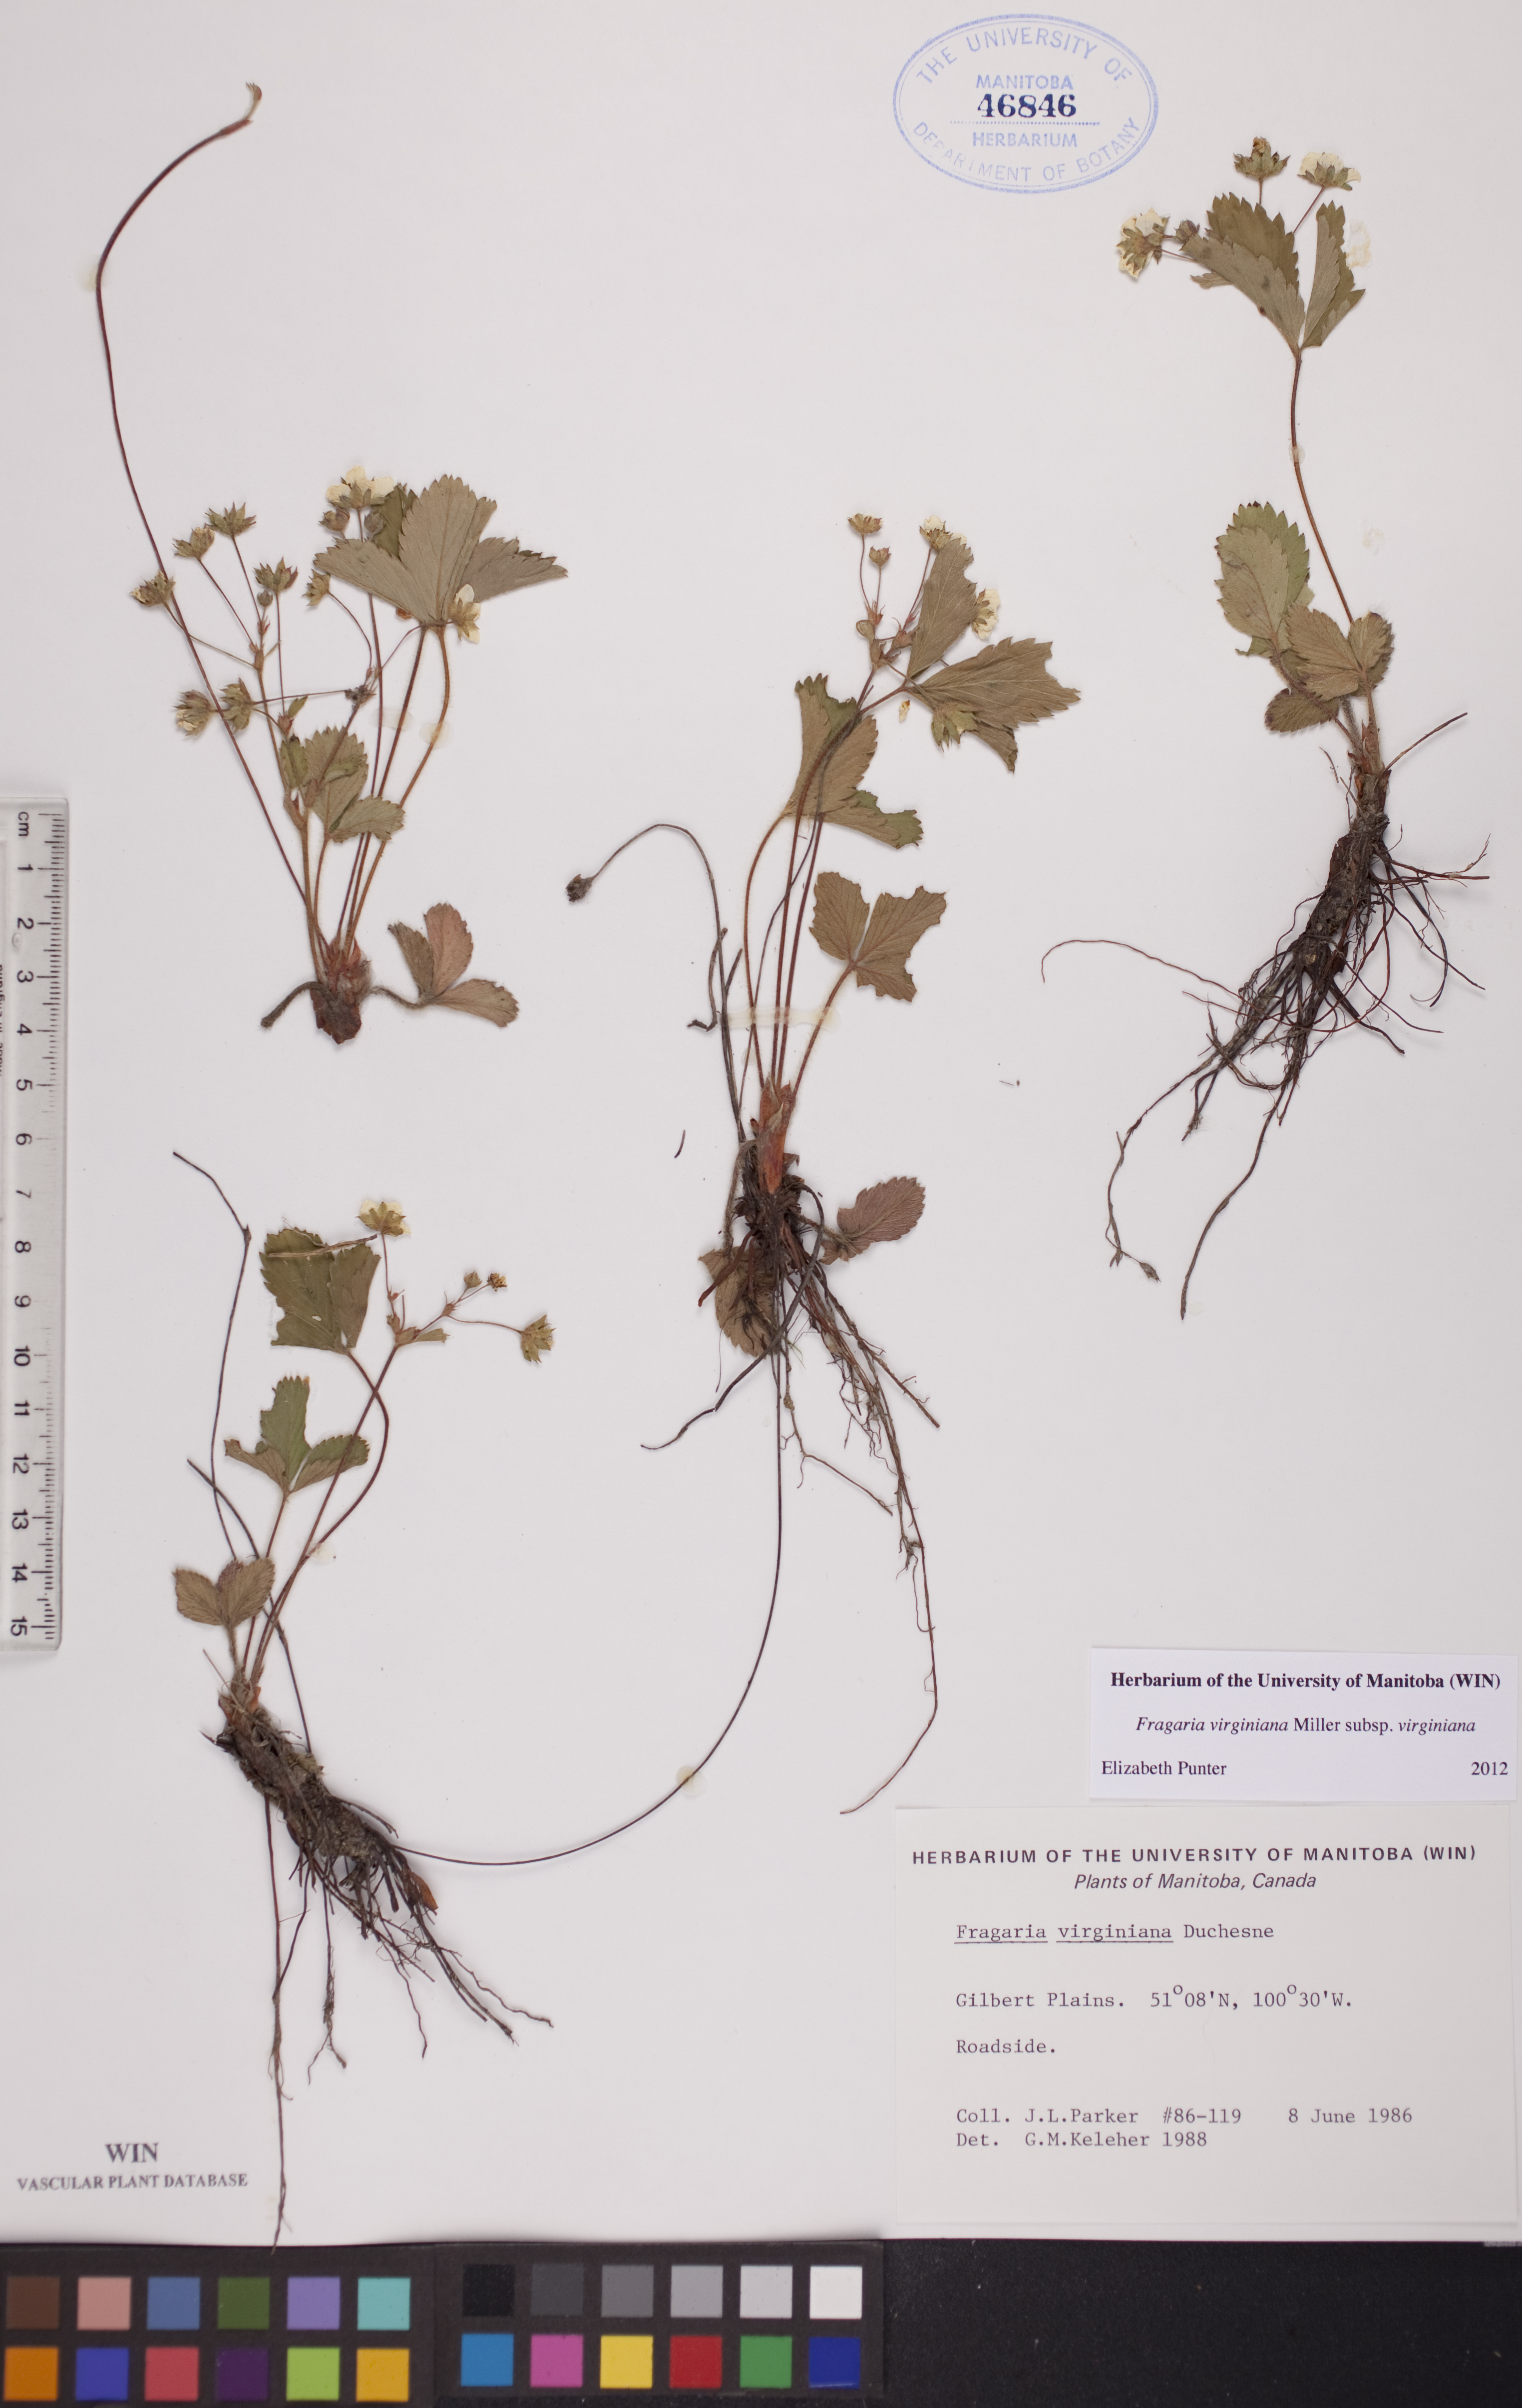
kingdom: Plantae
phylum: Tracheophyta
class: Magnoliopsida
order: Rosales
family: Rosaceae
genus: Fragaria
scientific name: Fragaria virginiana
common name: Thickleaved wild strawberry
